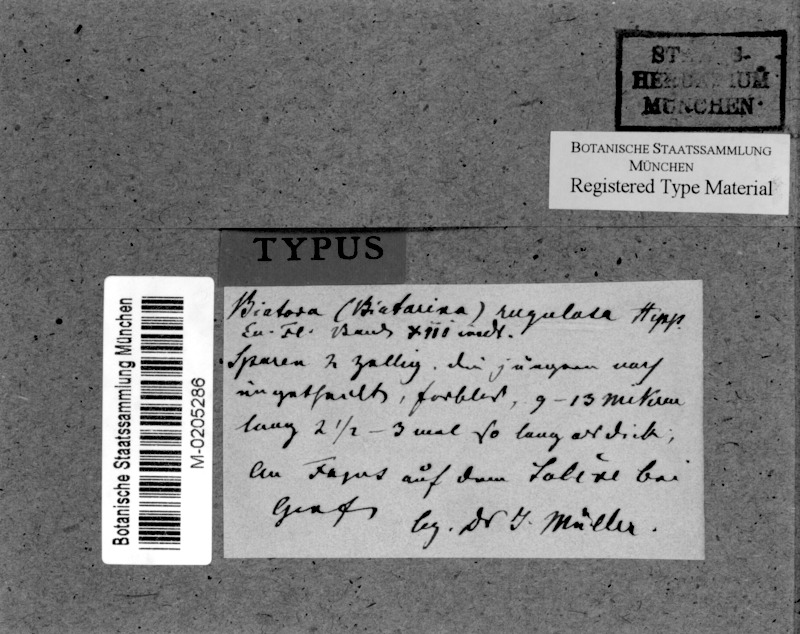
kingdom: Fungi
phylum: Ascomycota
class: Lecanoromycetes
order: Lecanorales
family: Catillariaceae
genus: Catillaria
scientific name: Catillaria rugulosa
